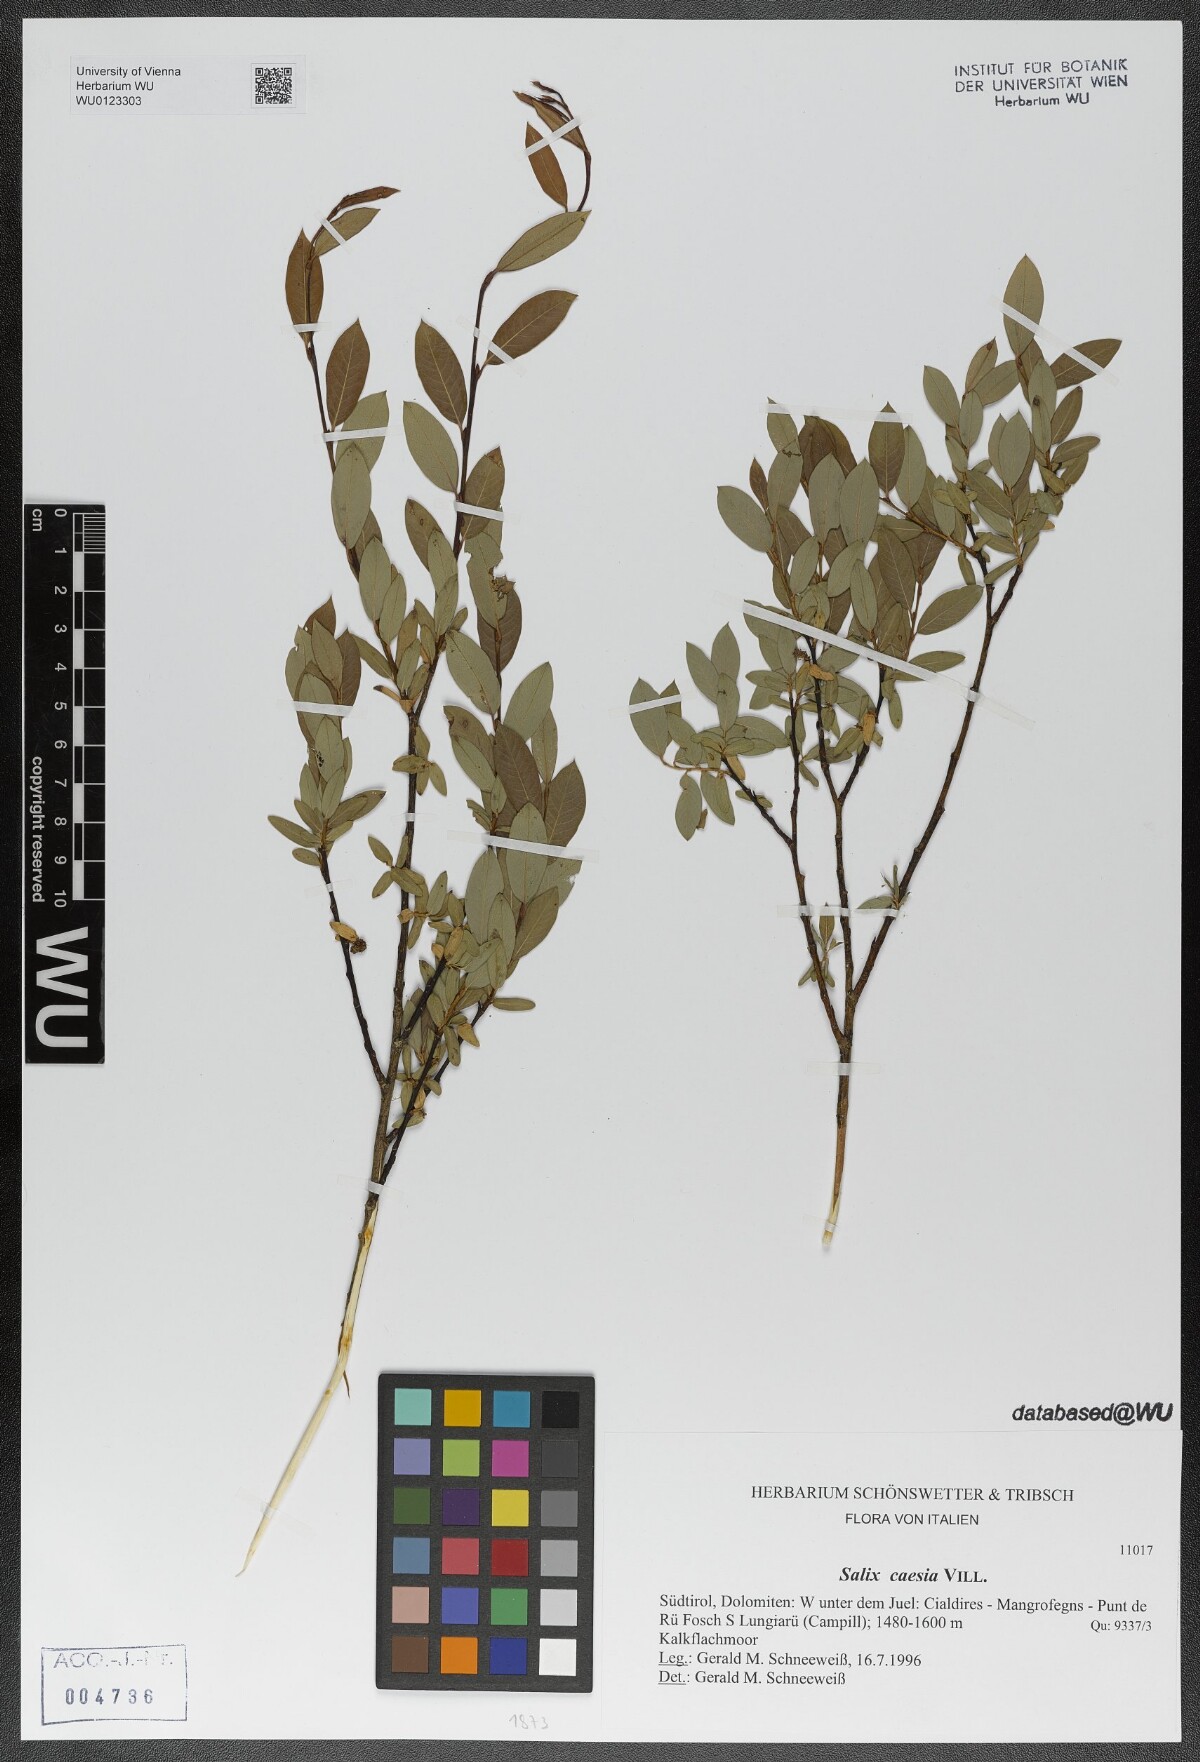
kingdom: Plantae
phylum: Tracheophyta
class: Magnoliopsida
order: Malpighiales
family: Salicaceae
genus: Salix
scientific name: Salix caesia
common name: Blue willow
